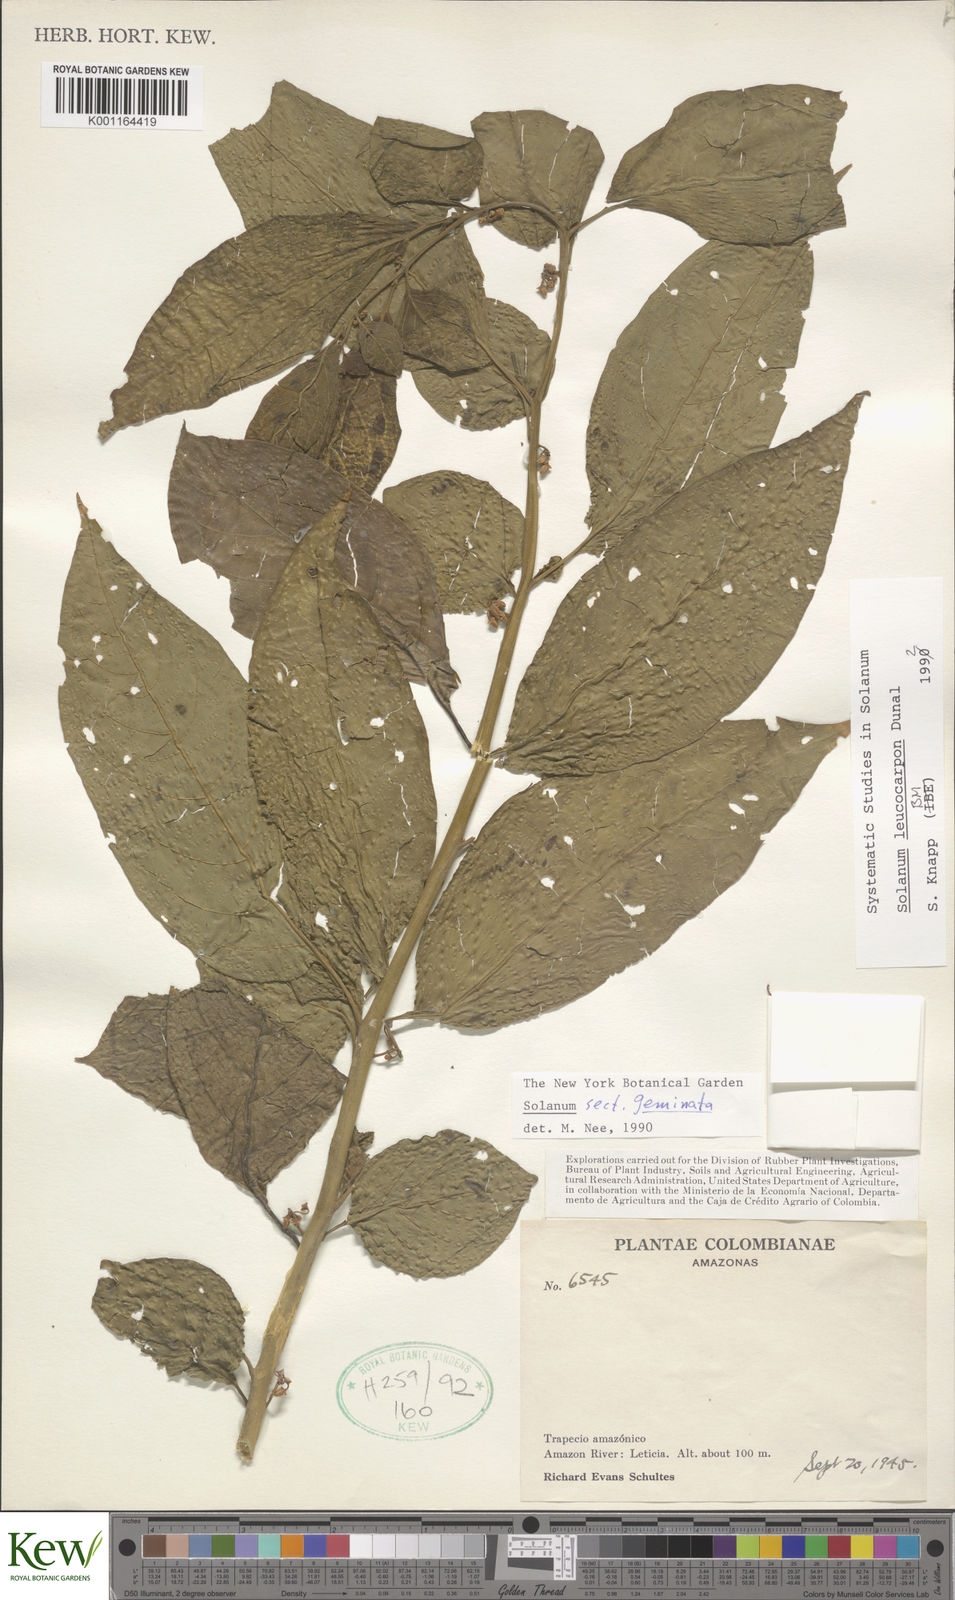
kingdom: Plantae
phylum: Tracheophyta
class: Magnoliopsida
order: Solanales
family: Solanaceae
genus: Solanum
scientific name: Solanum leucocarpon
